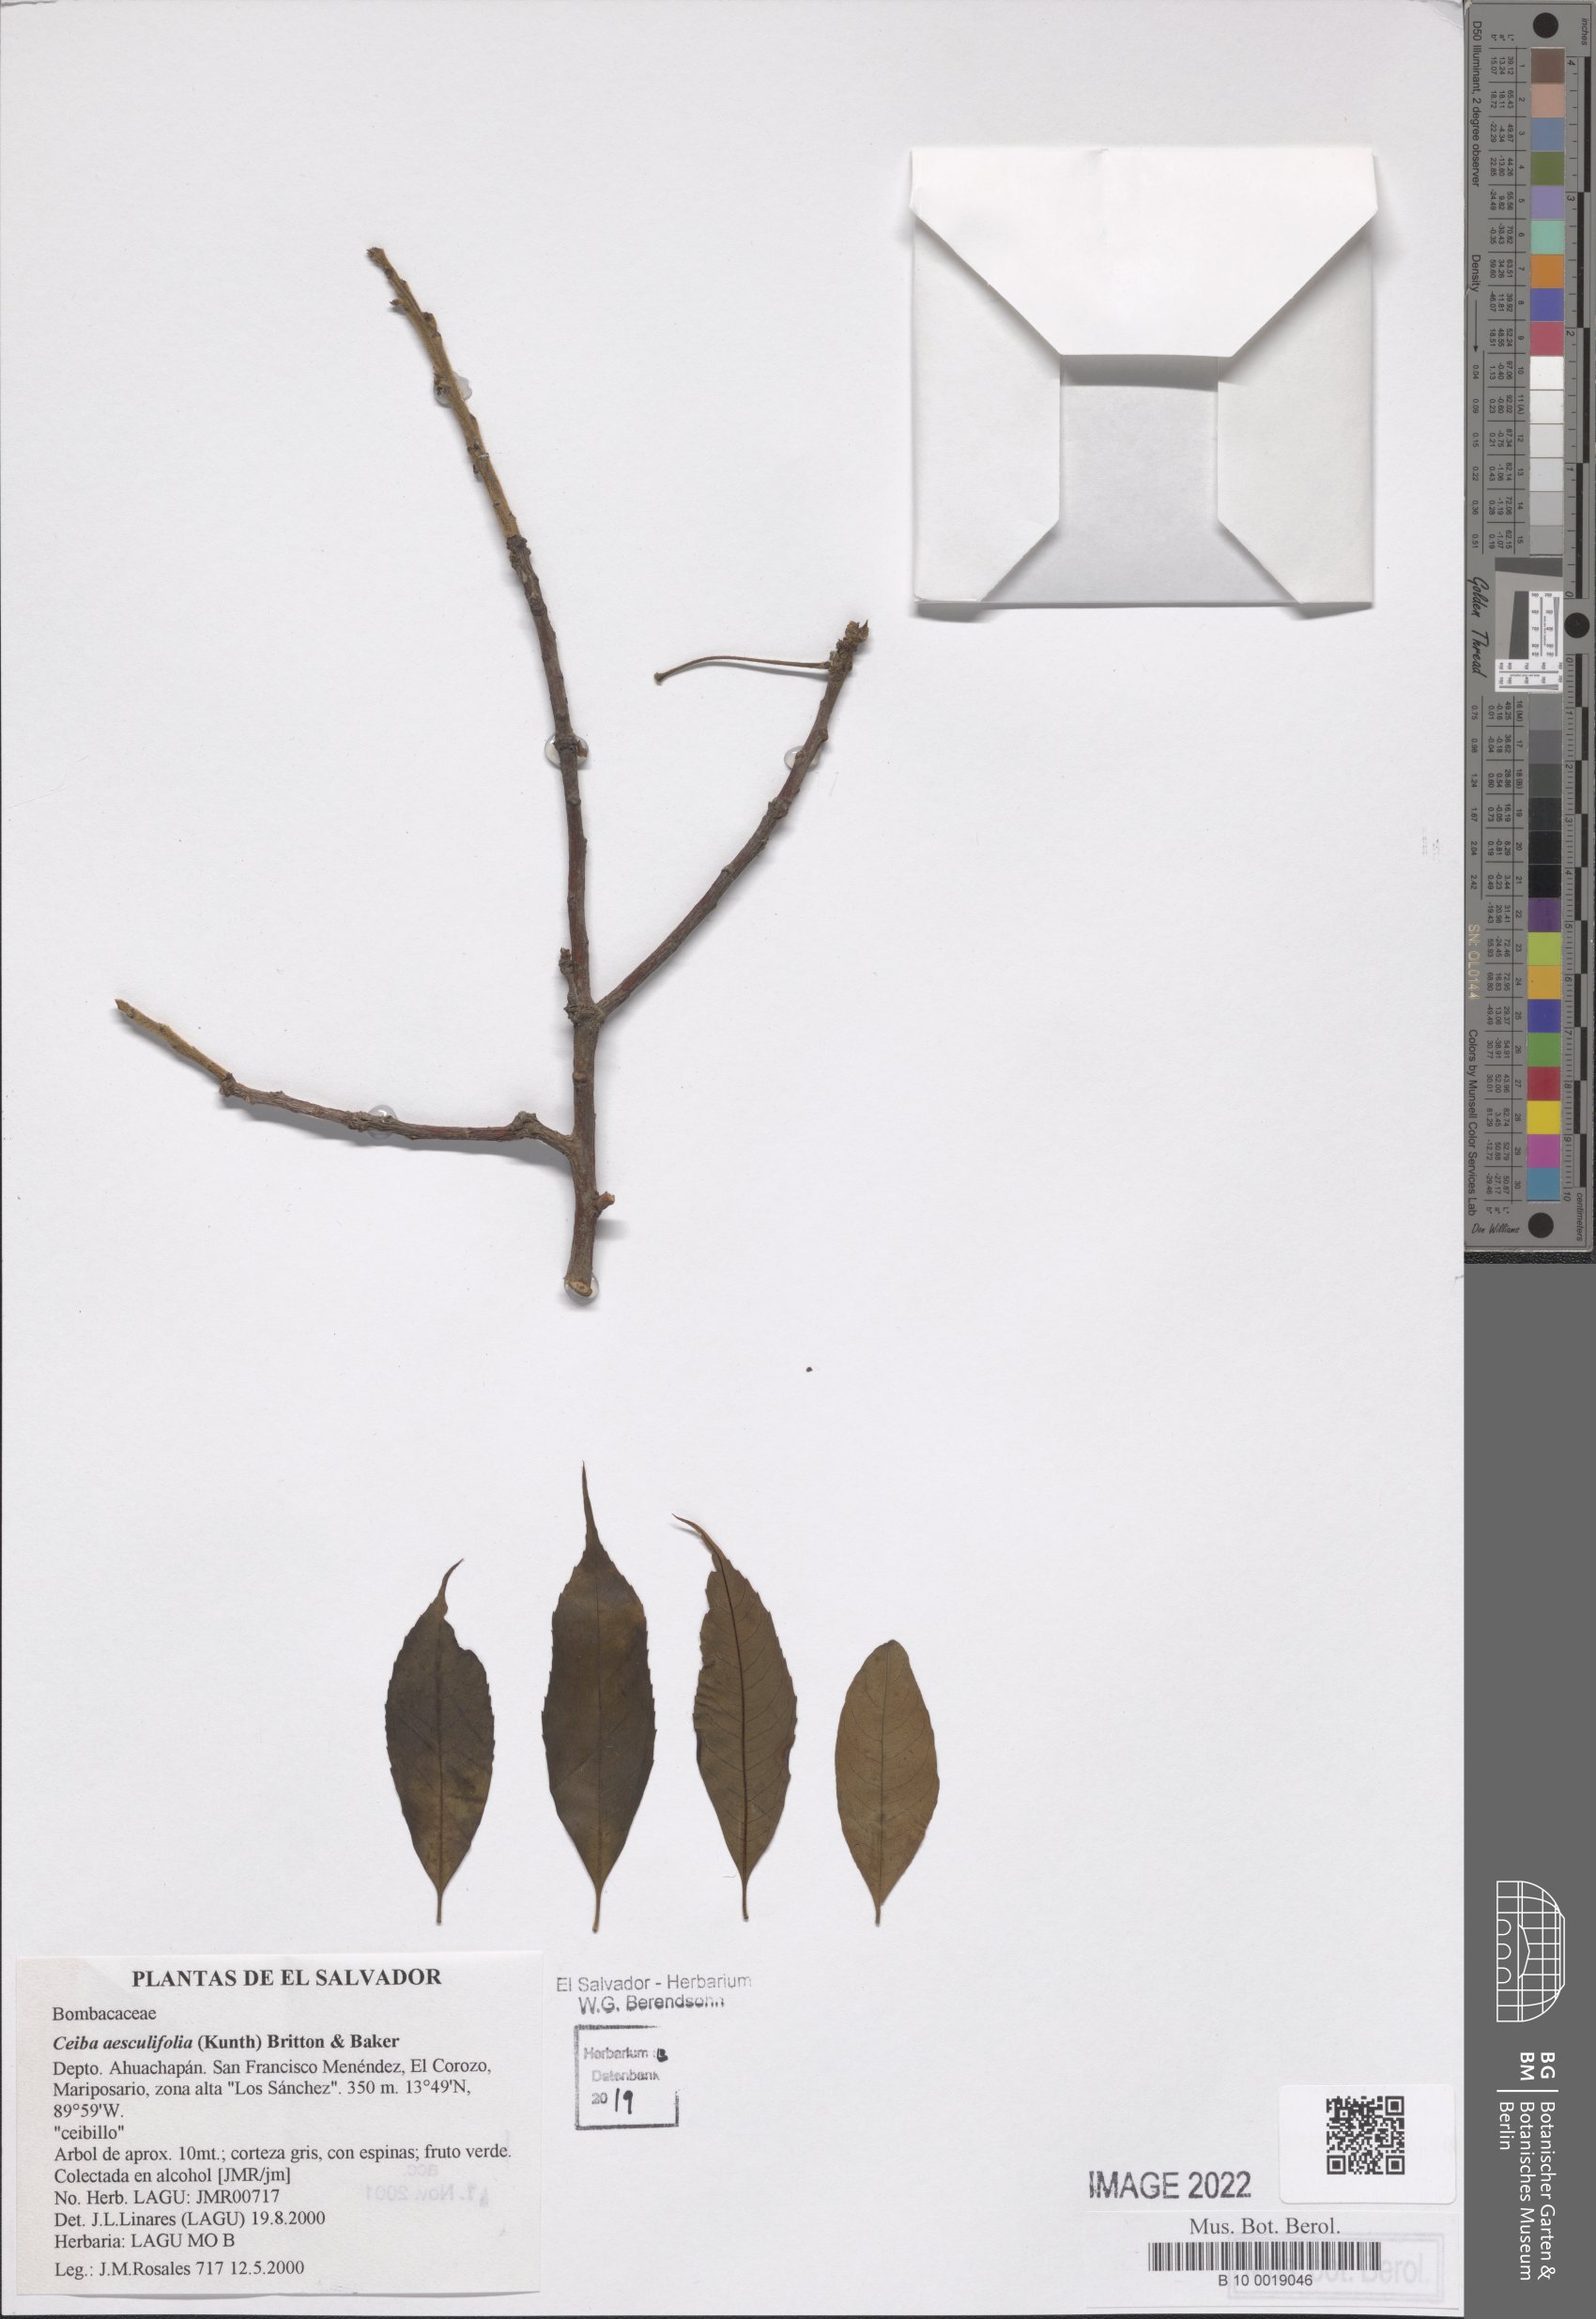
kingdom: Plantae
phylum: Tracheophyta
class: Magnoliopsida
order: Malvales
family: Malvaceae
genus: Ceiba
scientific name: Ceiba aesculifolia
